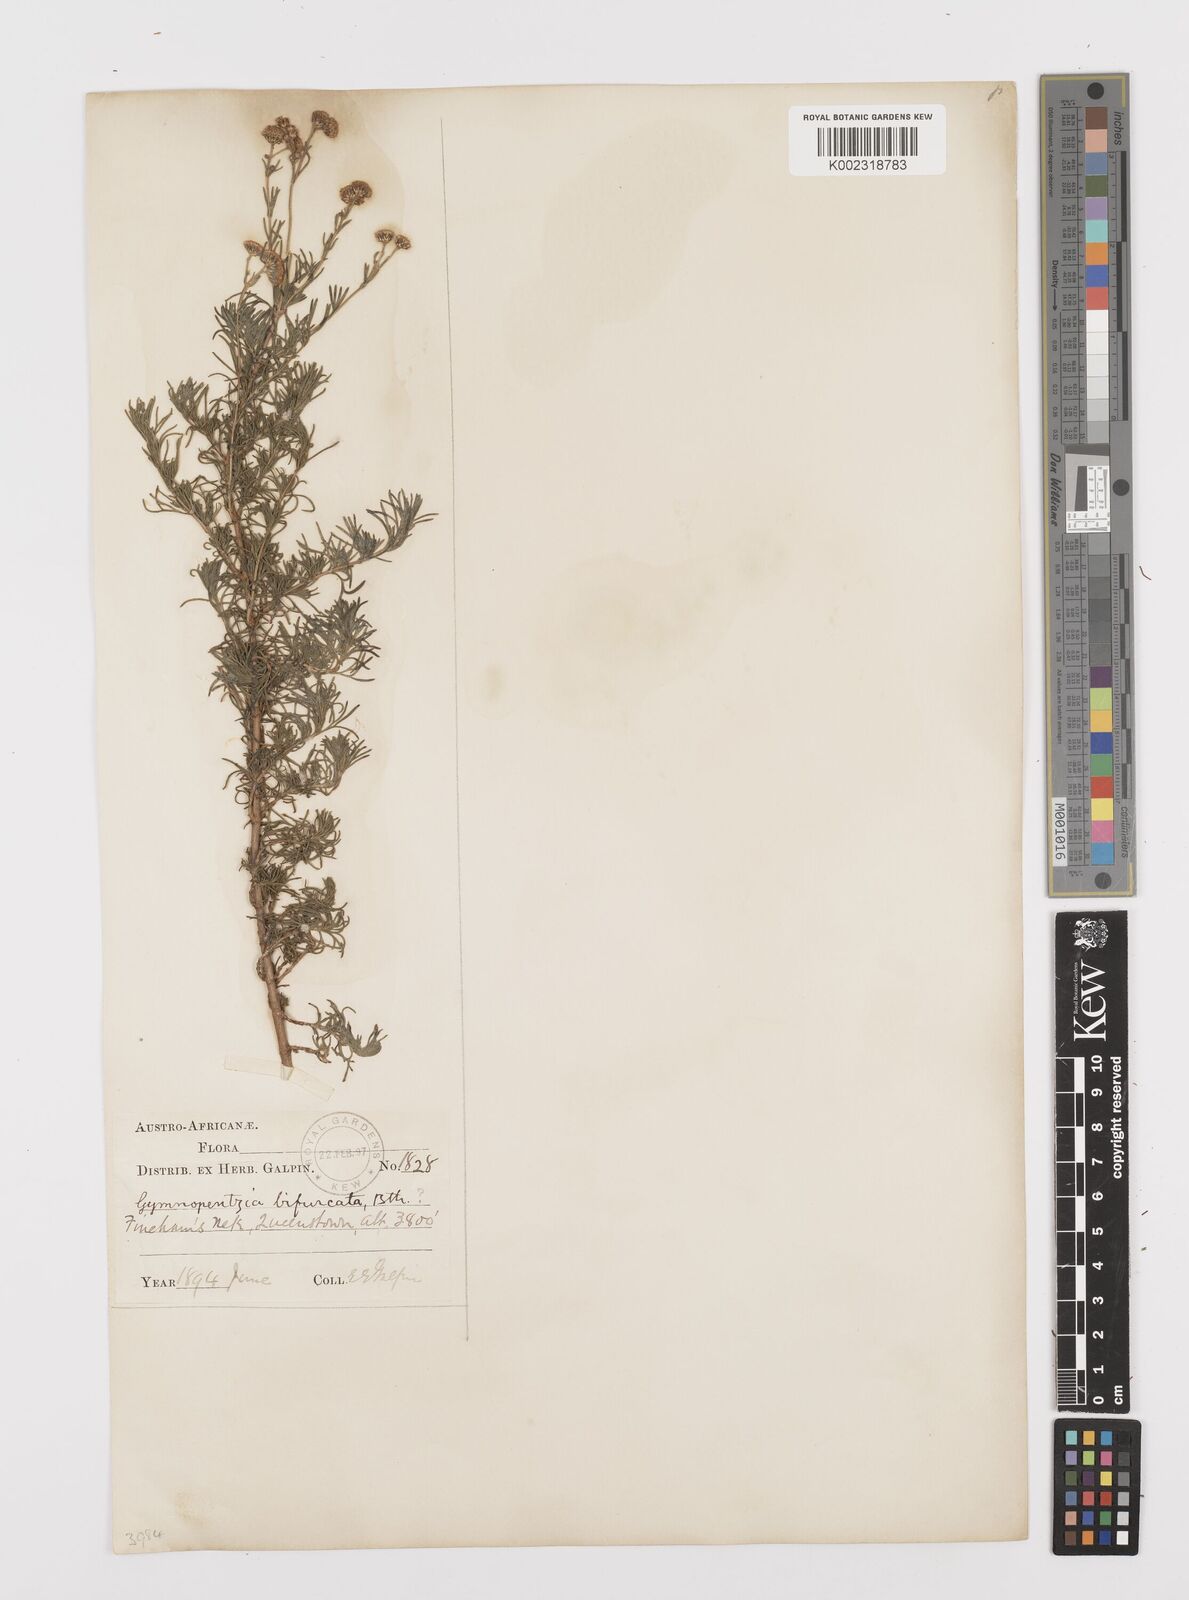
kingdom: Plantae
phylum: Tracheophyta
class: Magnoliopsida
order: Asterales
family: Asteraceae
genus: Gymnopentzia
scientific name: Gymnopentzia bifurcata
